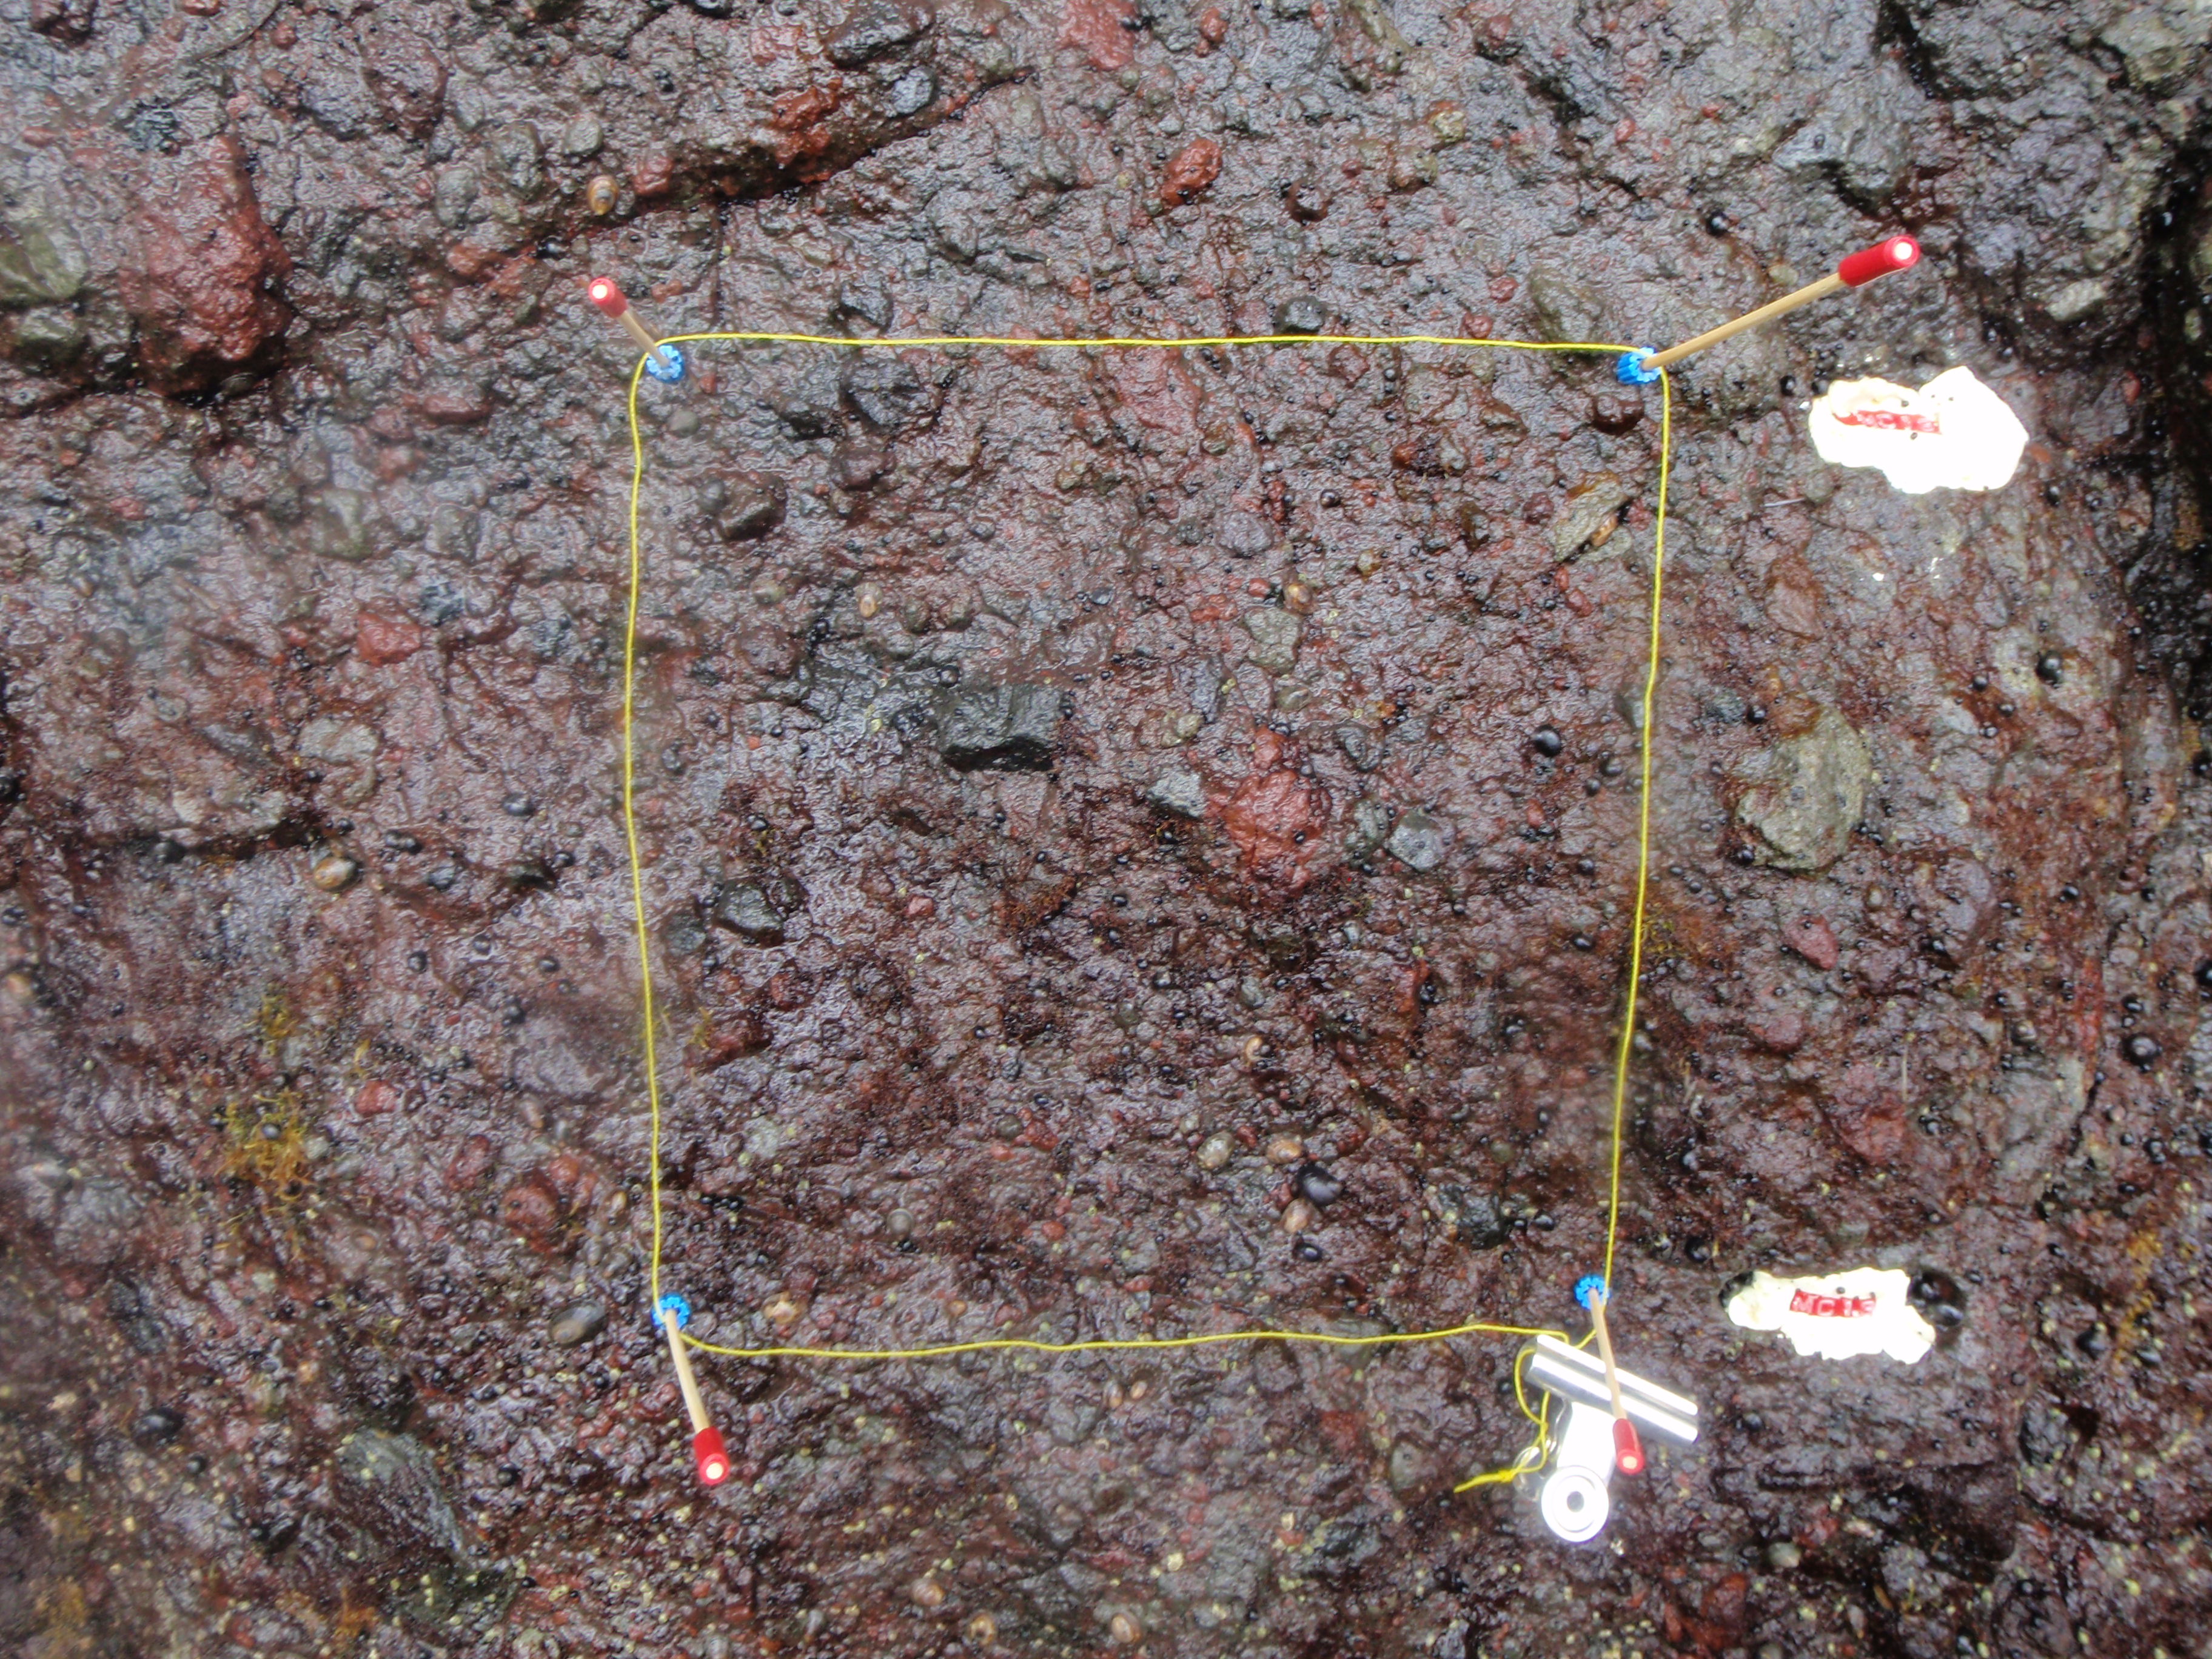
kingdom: Plantae
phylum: Rhodophyta
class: Florideophyceae
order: Gigartinales
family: Endocladiaceae
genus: Gloiopeltis
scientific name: Gloiopeltis furcata
